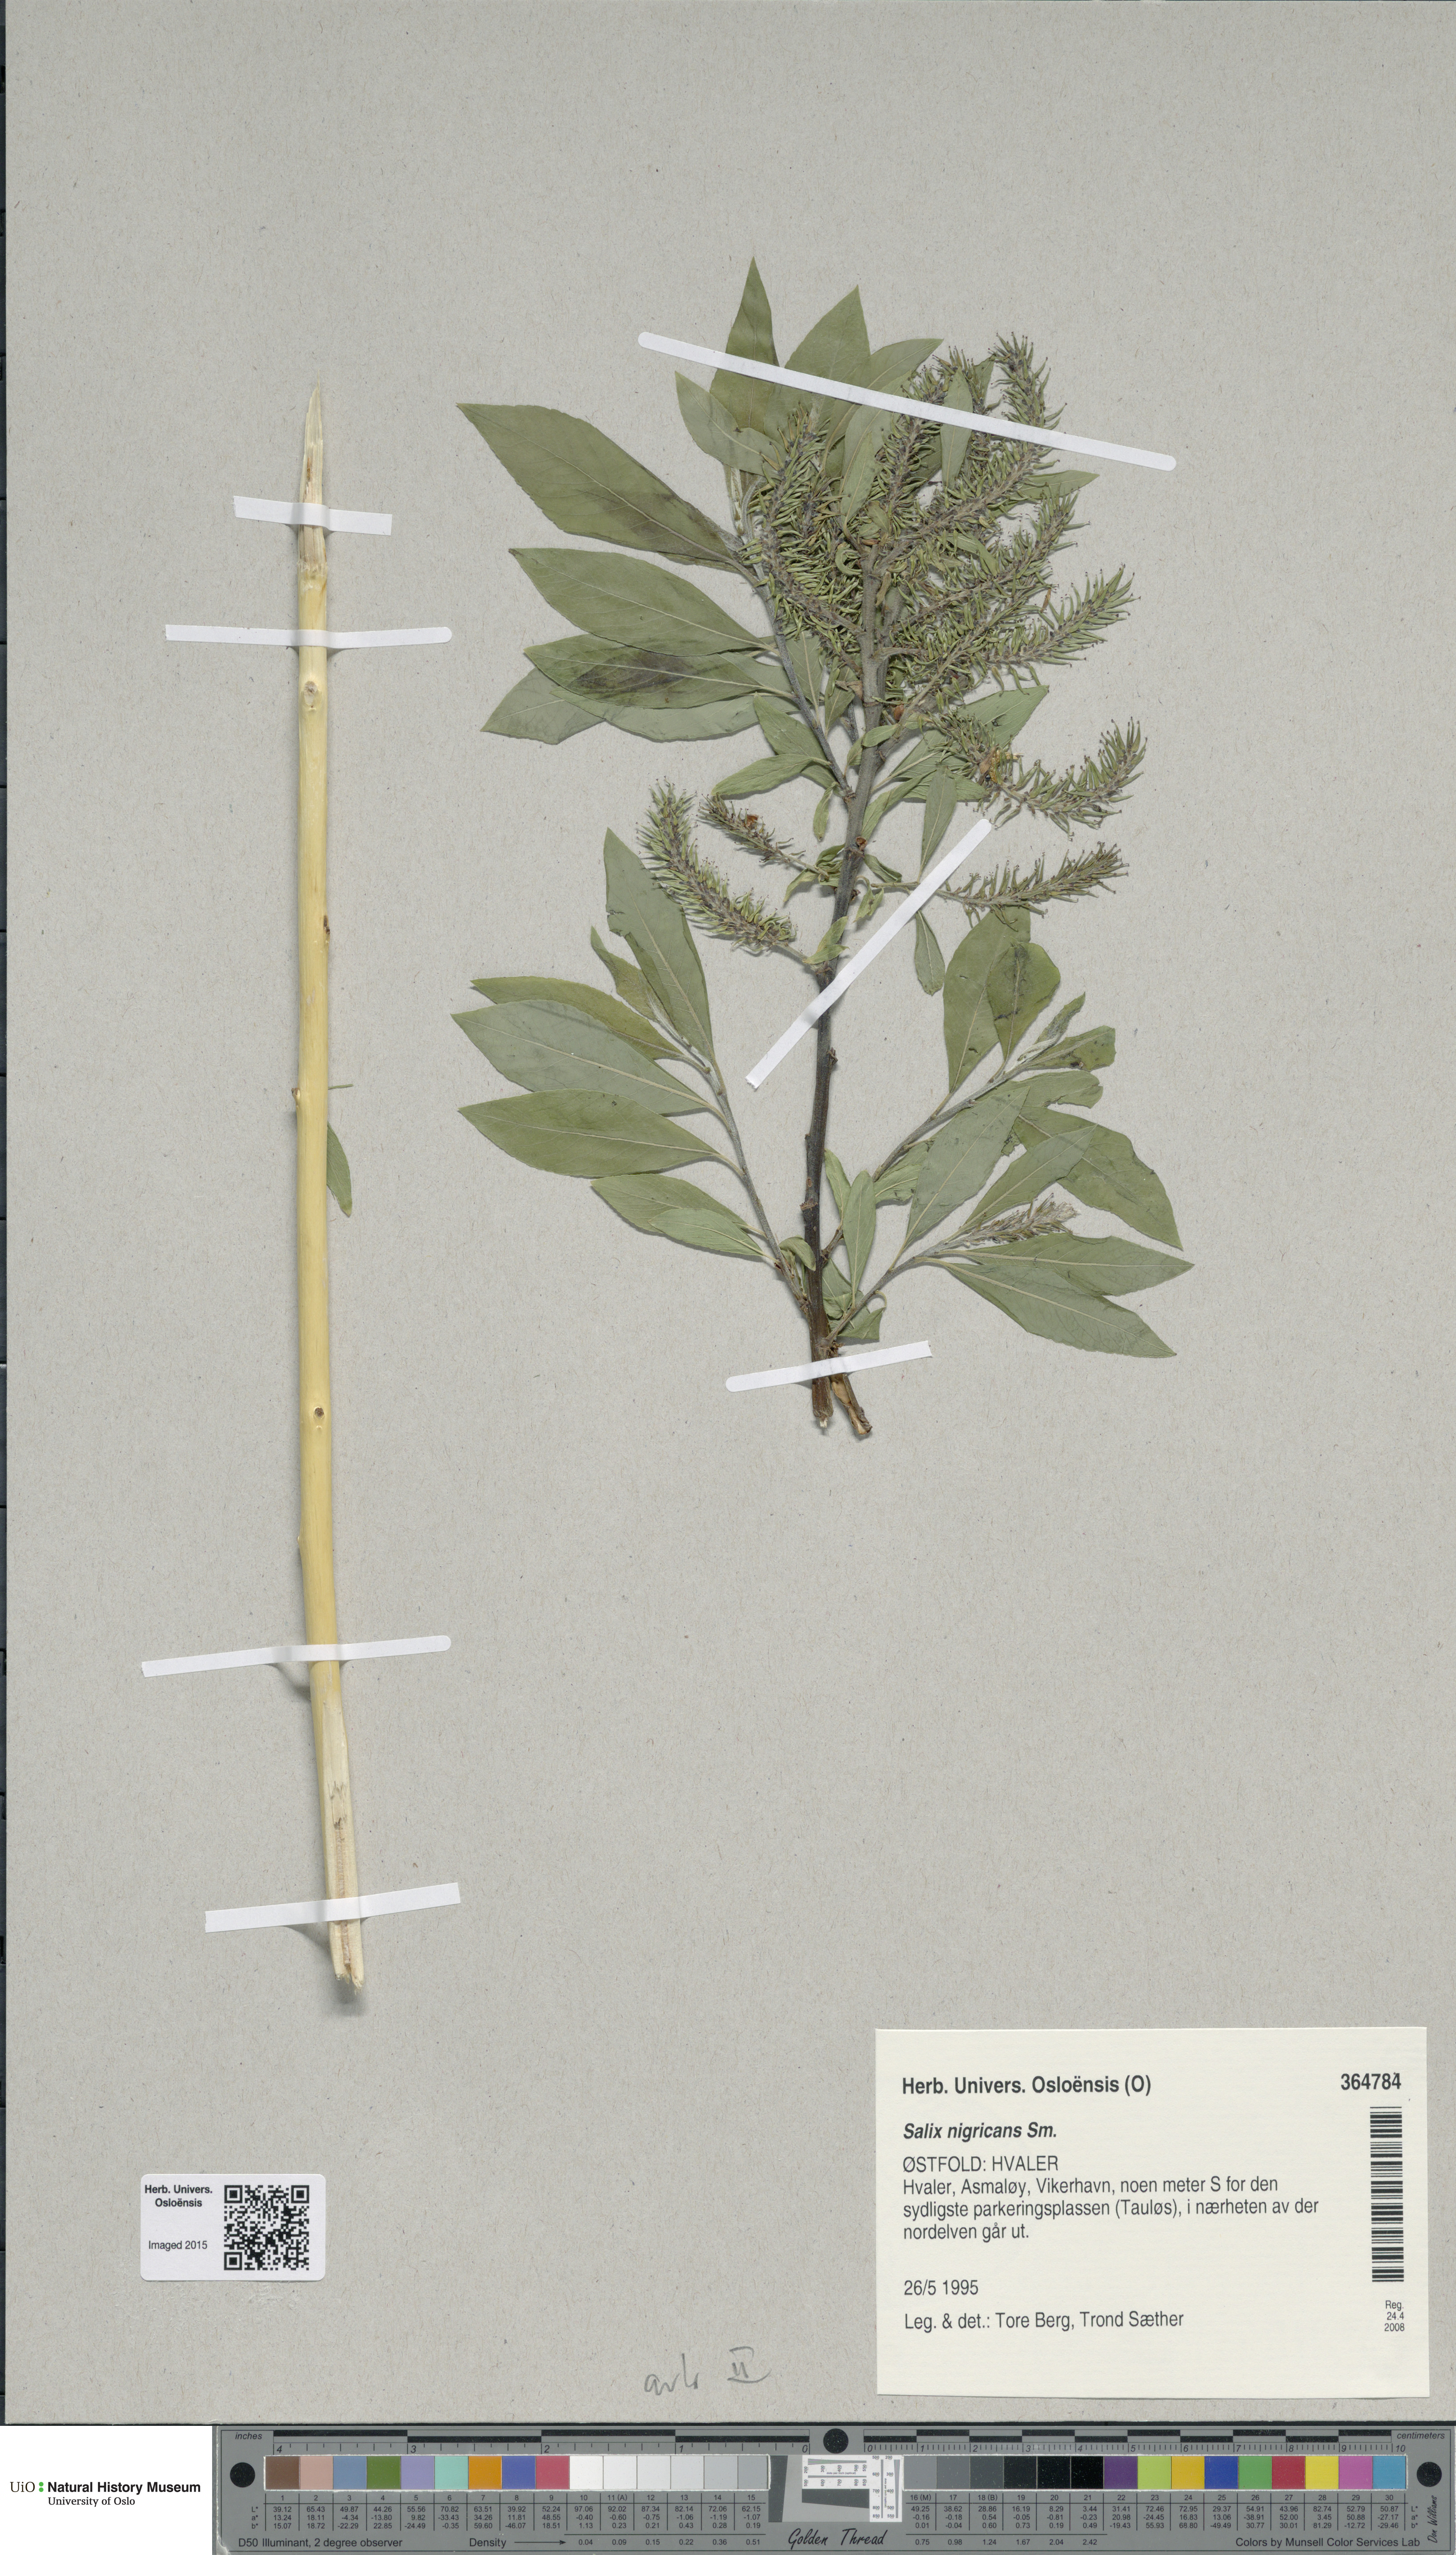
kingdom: Plantae
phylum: Tracheophyta
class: Magnoliopsida
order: Malpighiales
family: Salicaceae
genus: Salix
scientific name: Salix
